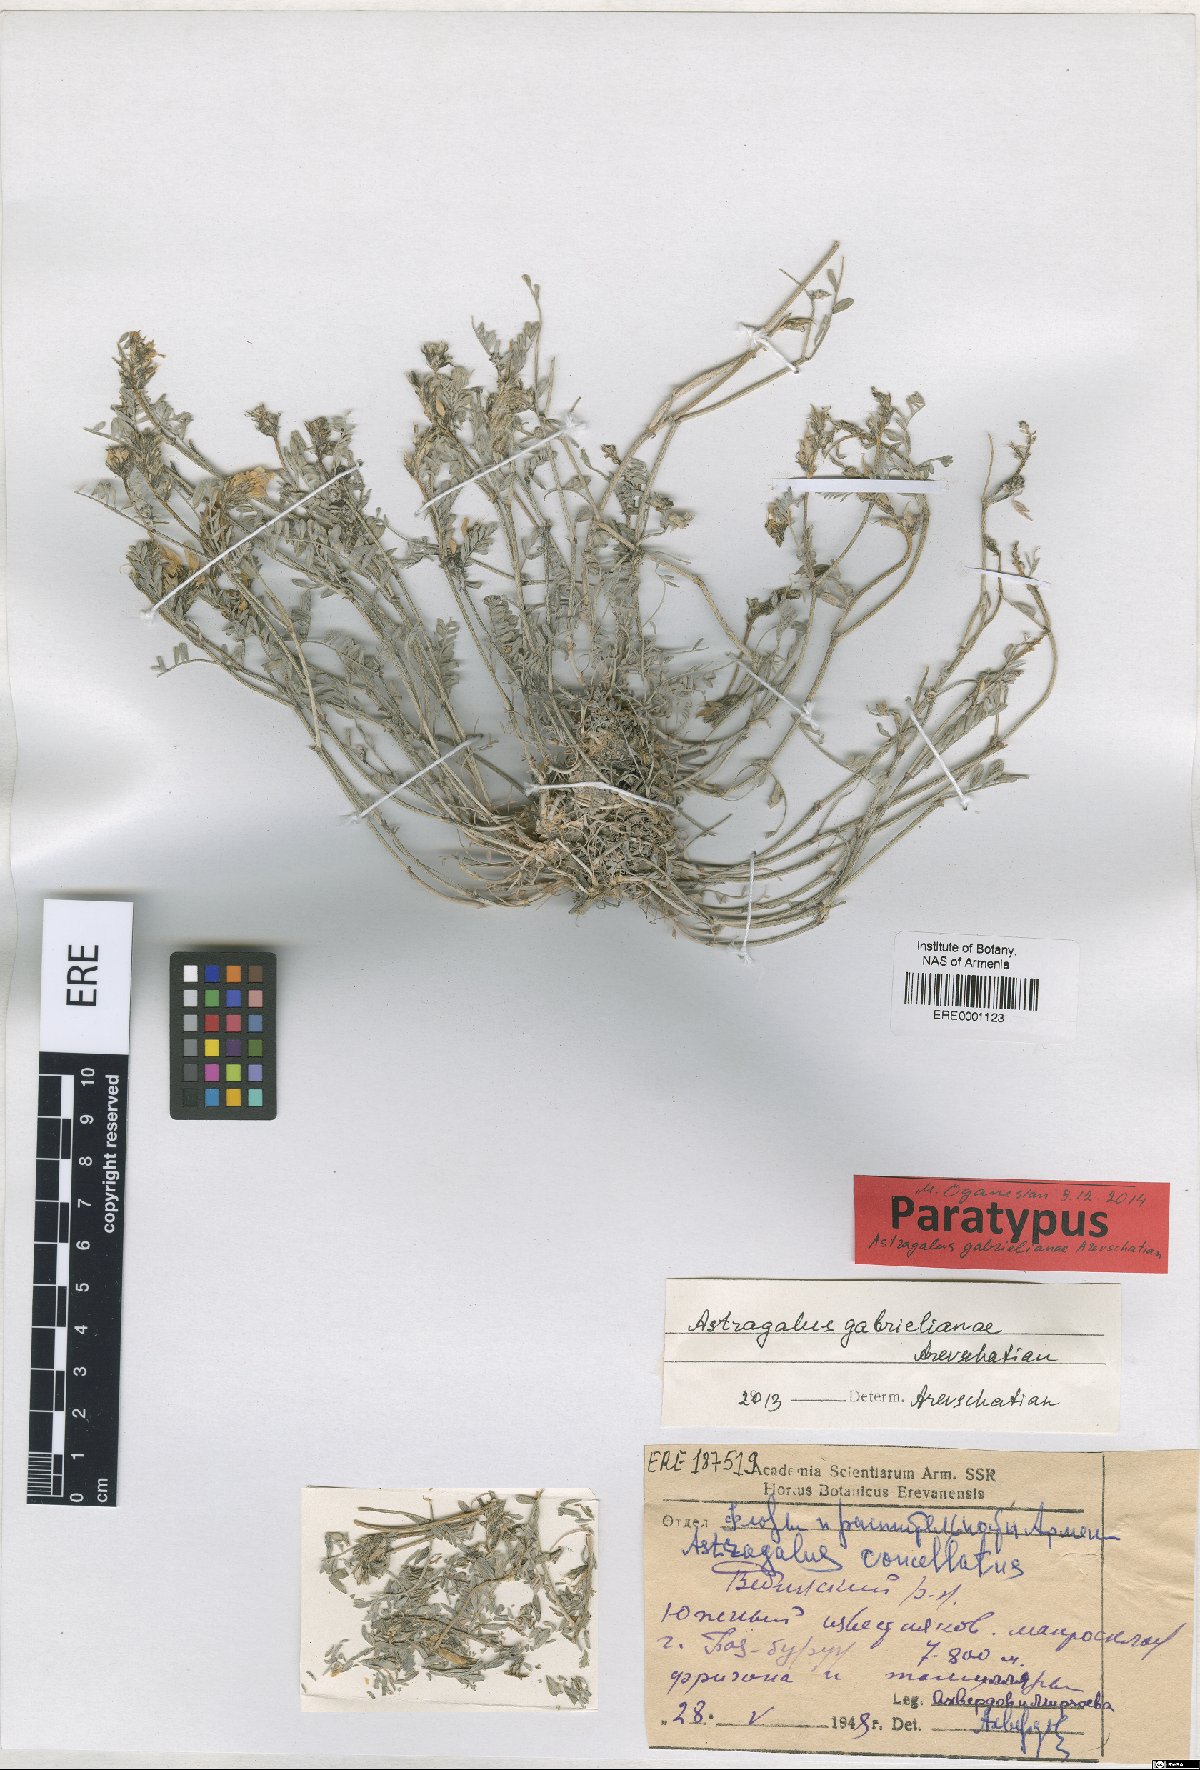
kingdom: Plantae
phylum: Tracheophyta
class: Magnoliopsida
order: Fabales
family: Fabaceae
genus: Astragalus
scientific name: Astragalus gabrelianae
